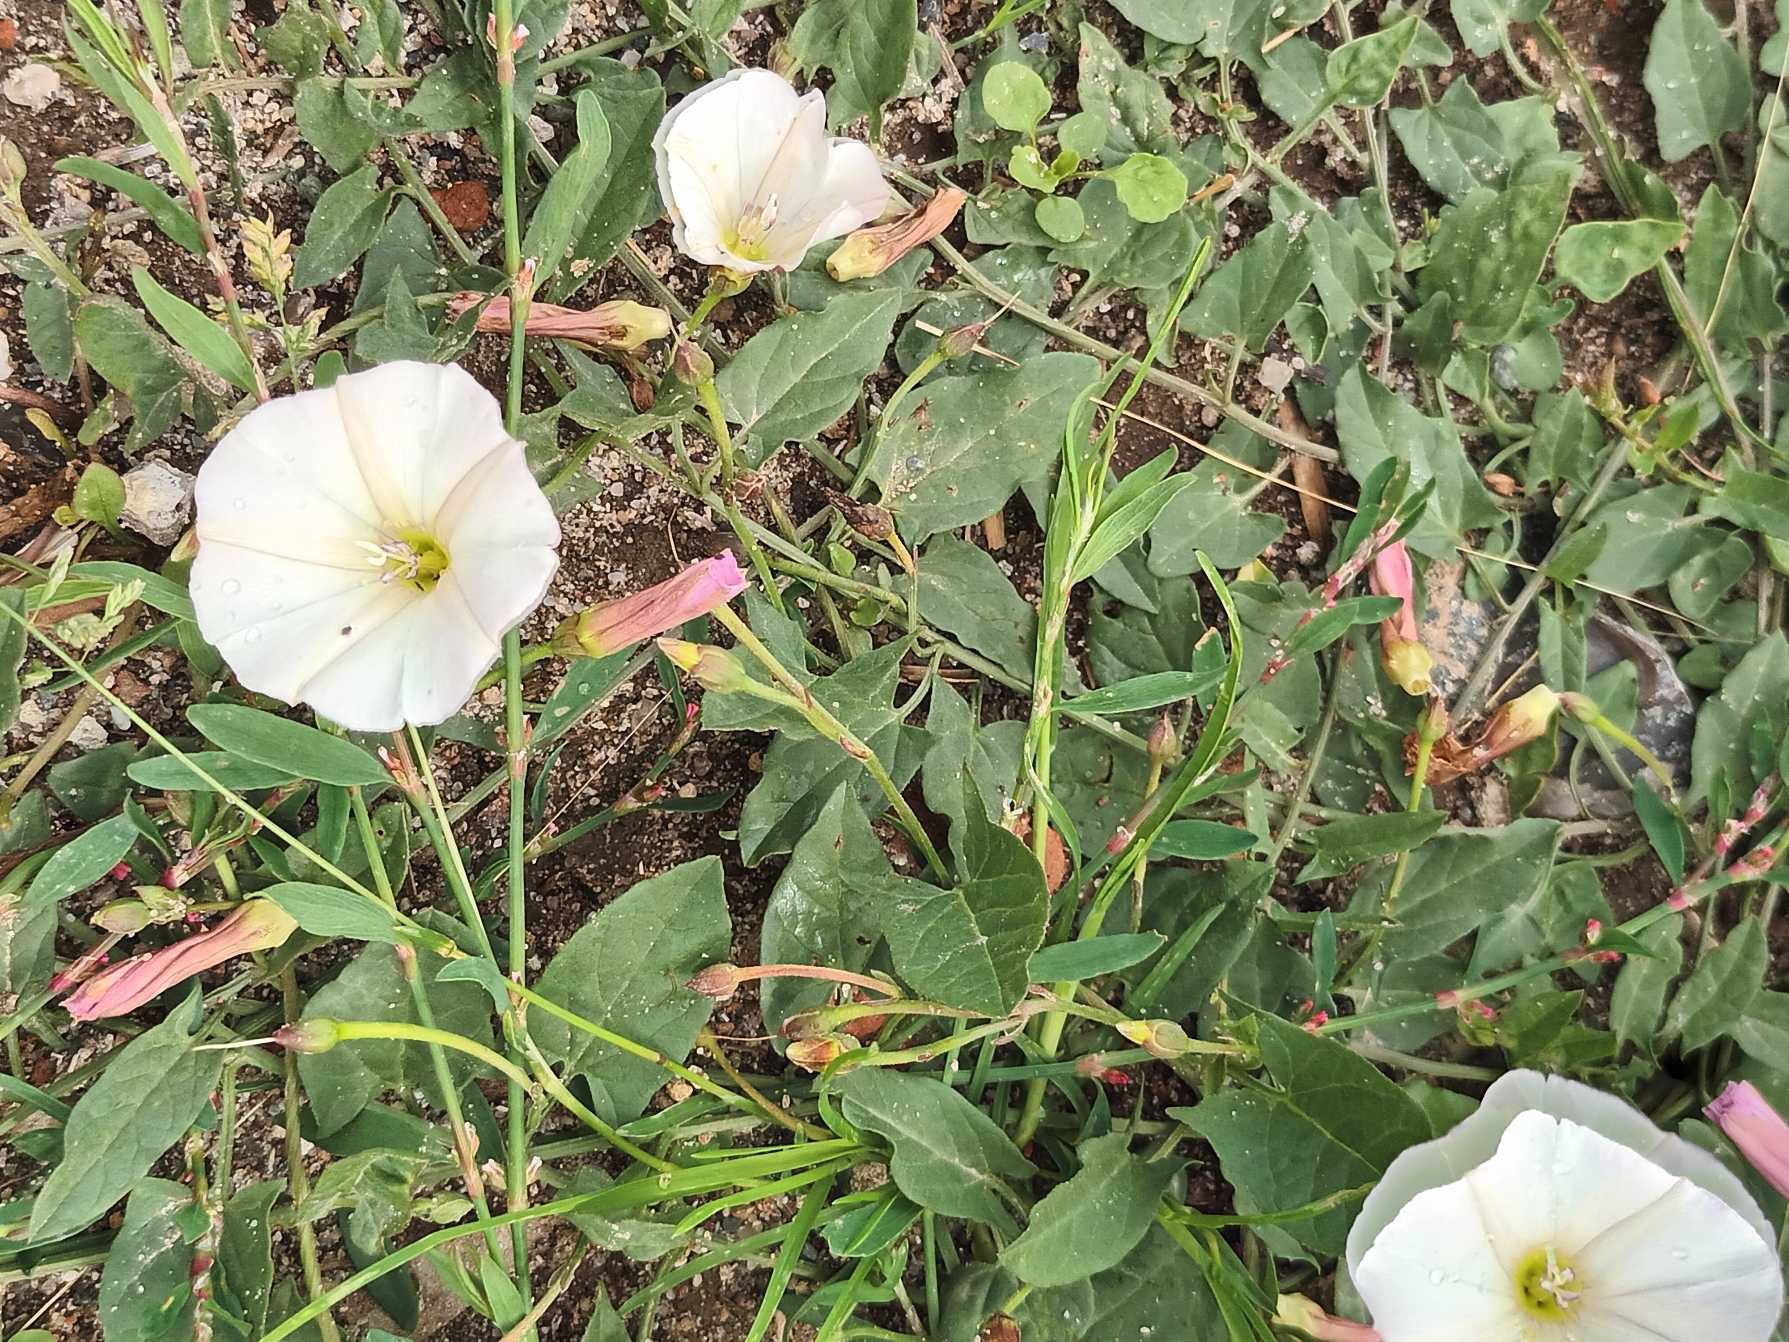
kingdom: Plantae
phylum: Tracheophyta
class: Magnoliopsida
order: Solanales
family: Convolvulaceae
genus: Convolvulus
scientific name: Convolvulus arvensis
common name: Ager-snerle
